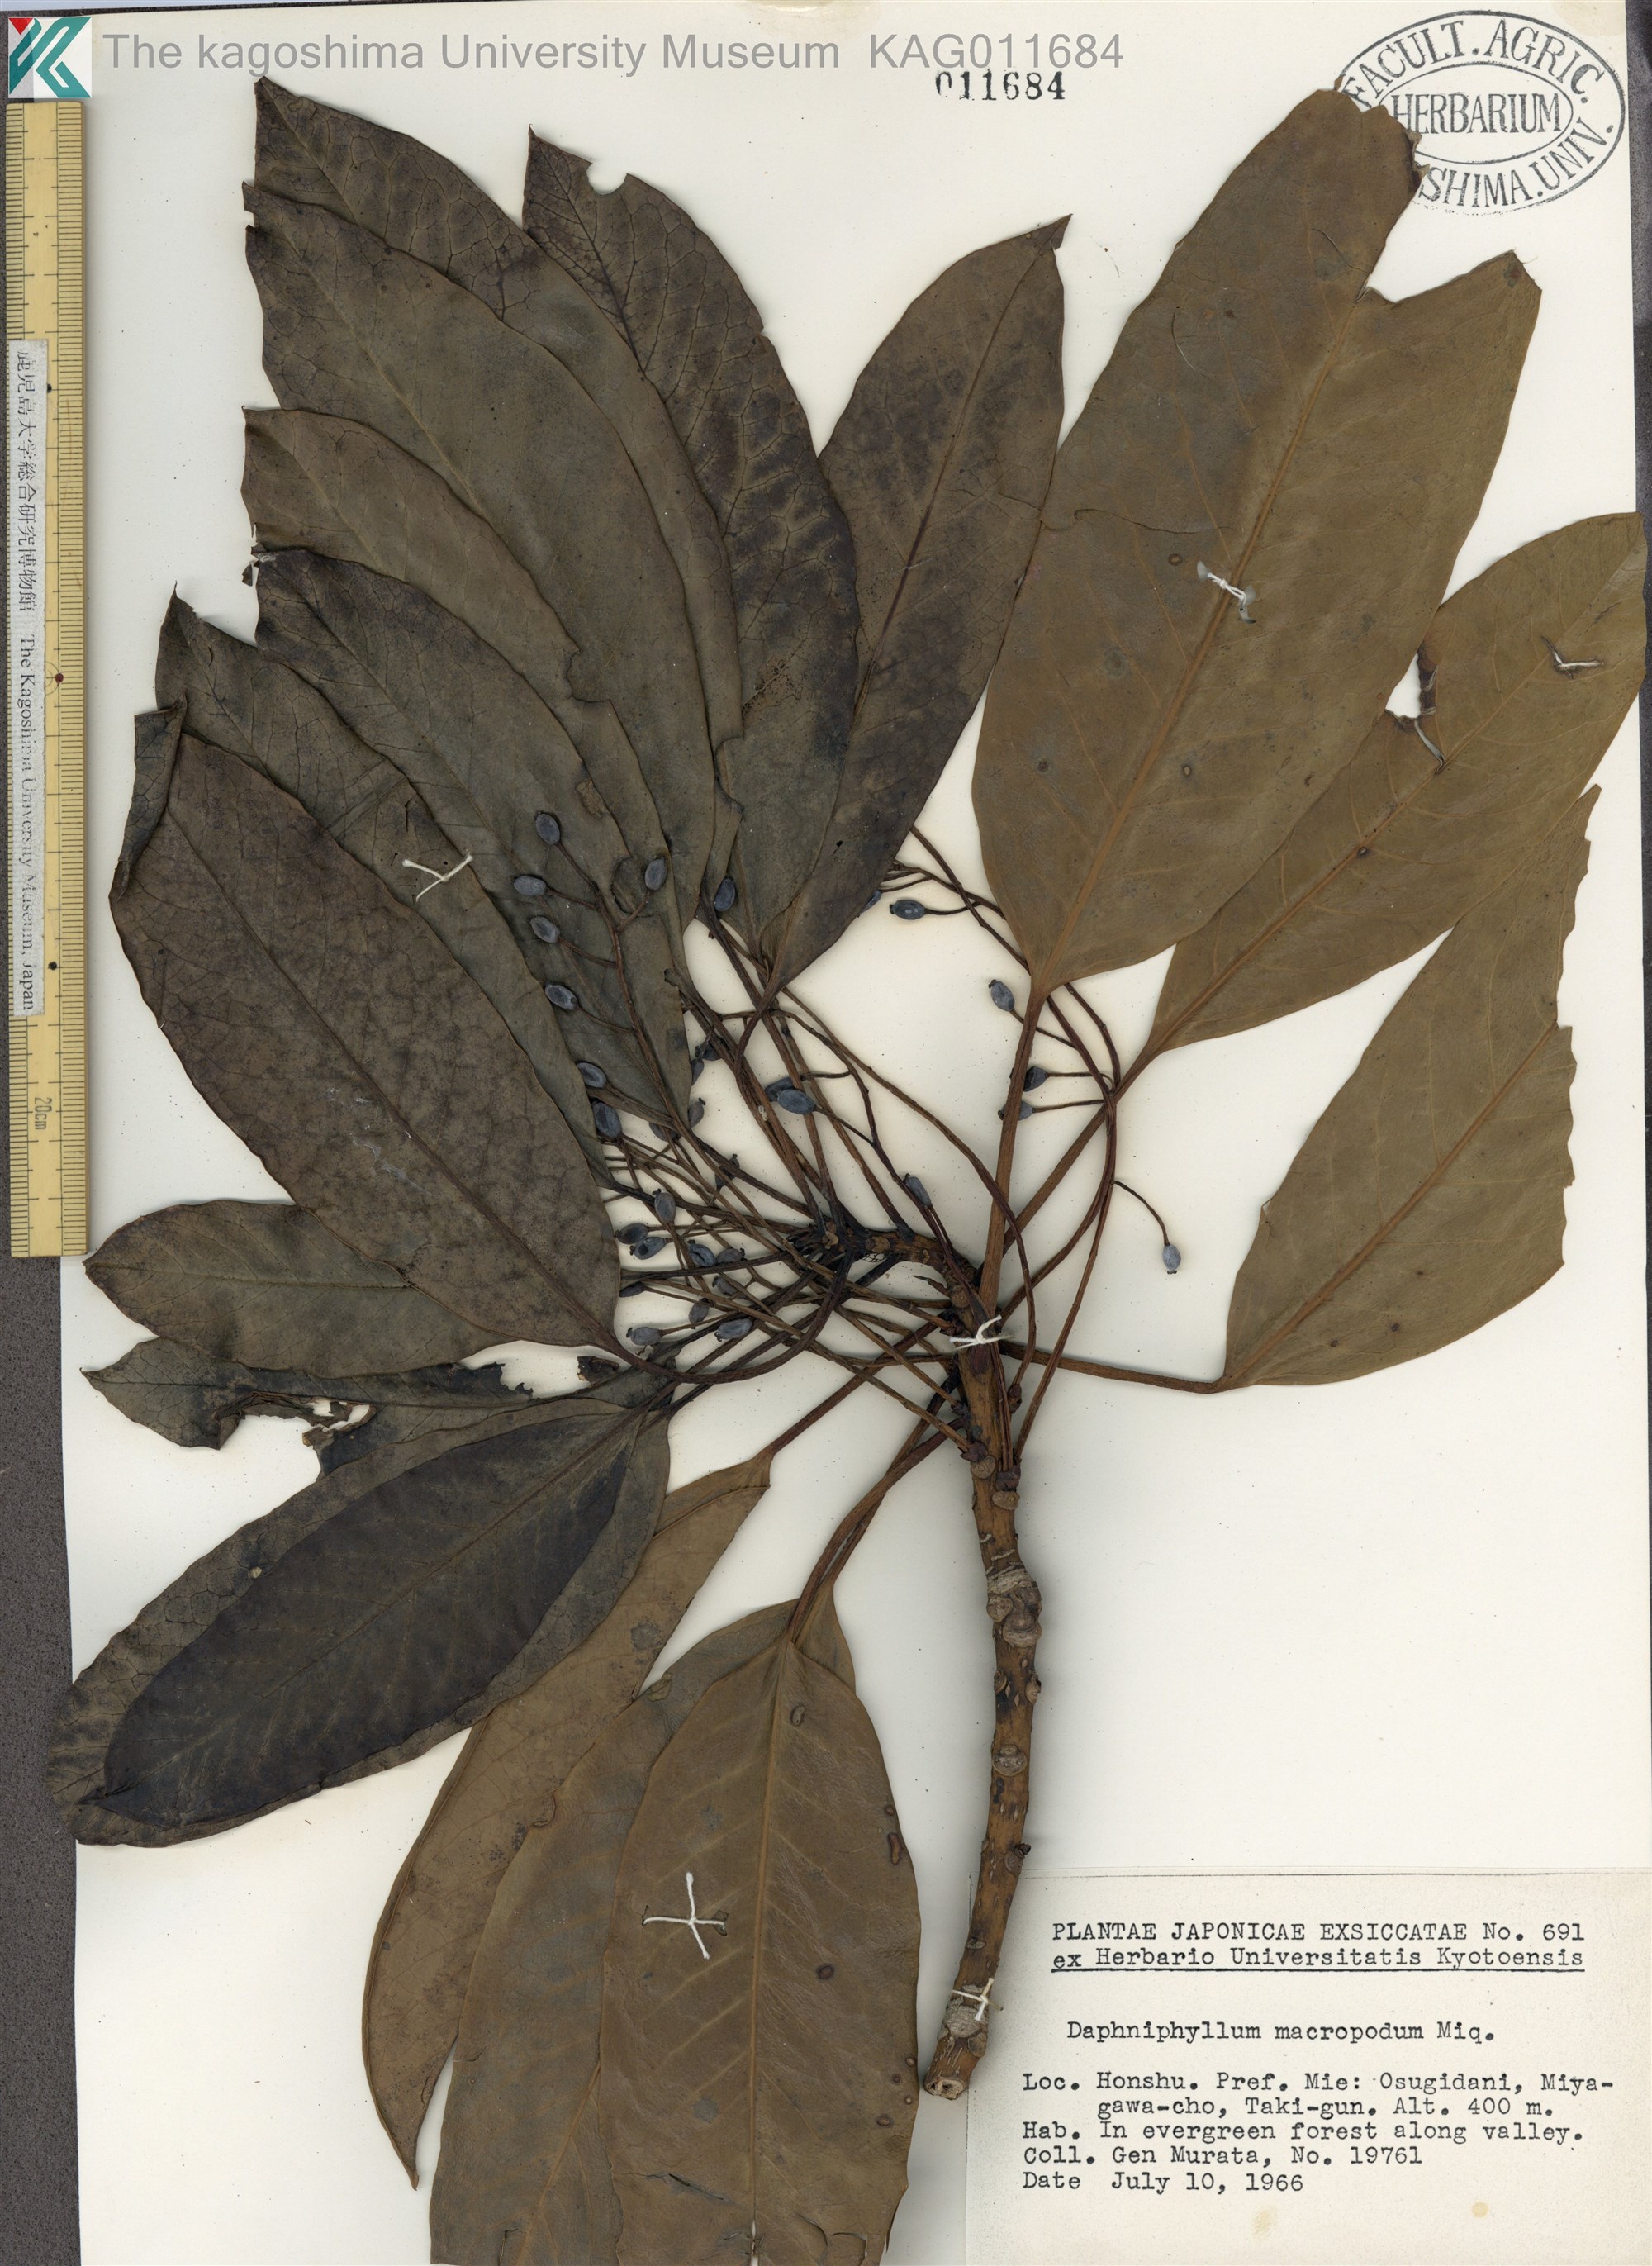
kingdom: Plantae
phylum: Tracheophyta
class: Magnoliopsida
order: Saxifragales
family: Daphniphyllaceae
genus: Daphniphyllum
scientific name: Daphniphyllum macropodum
